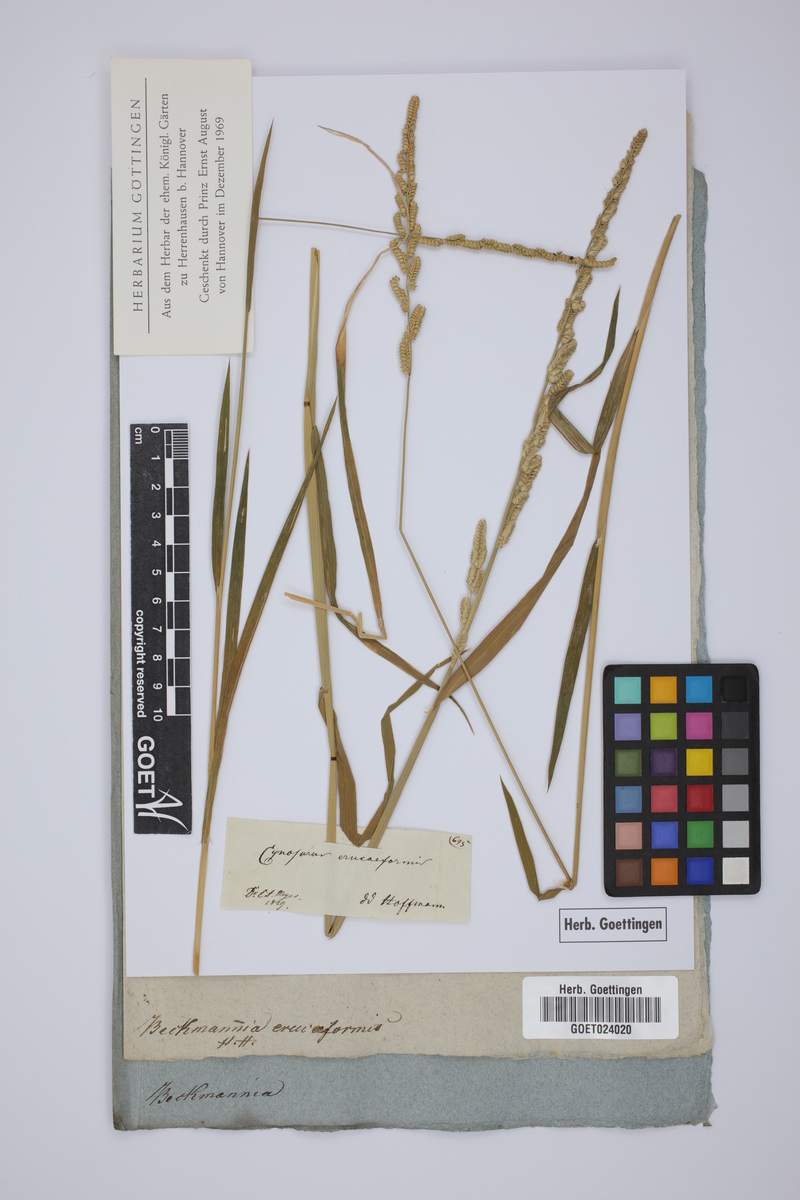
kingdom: Plantae
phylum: Tracheophyta
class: Liliopsida
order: Poales
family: Poaceae
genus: Beckmannia
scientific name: Beckmannia eruciformis
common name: European slough-grass
